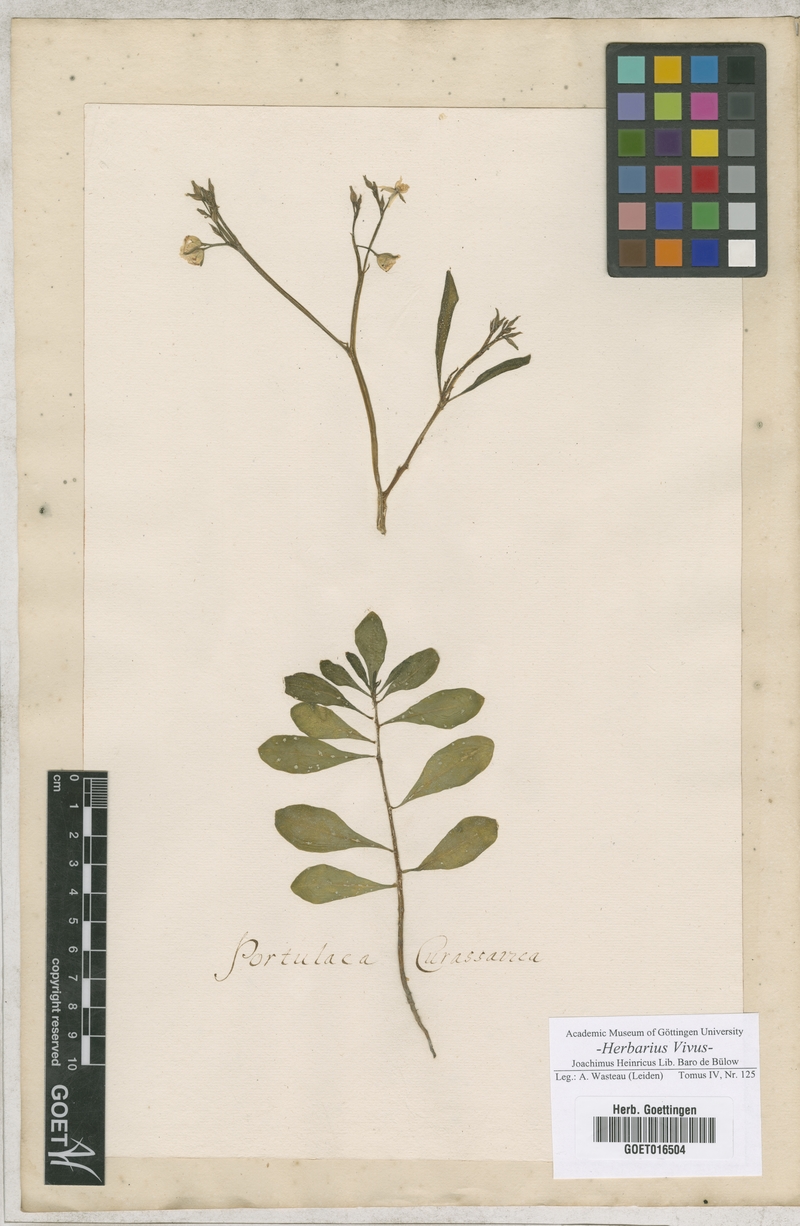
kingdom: Plantae
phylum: Tracheophyta
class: Magnoliopsida
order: Caryophyllales
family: Portulacaceae
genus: Portulaca
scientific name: Portulaca
